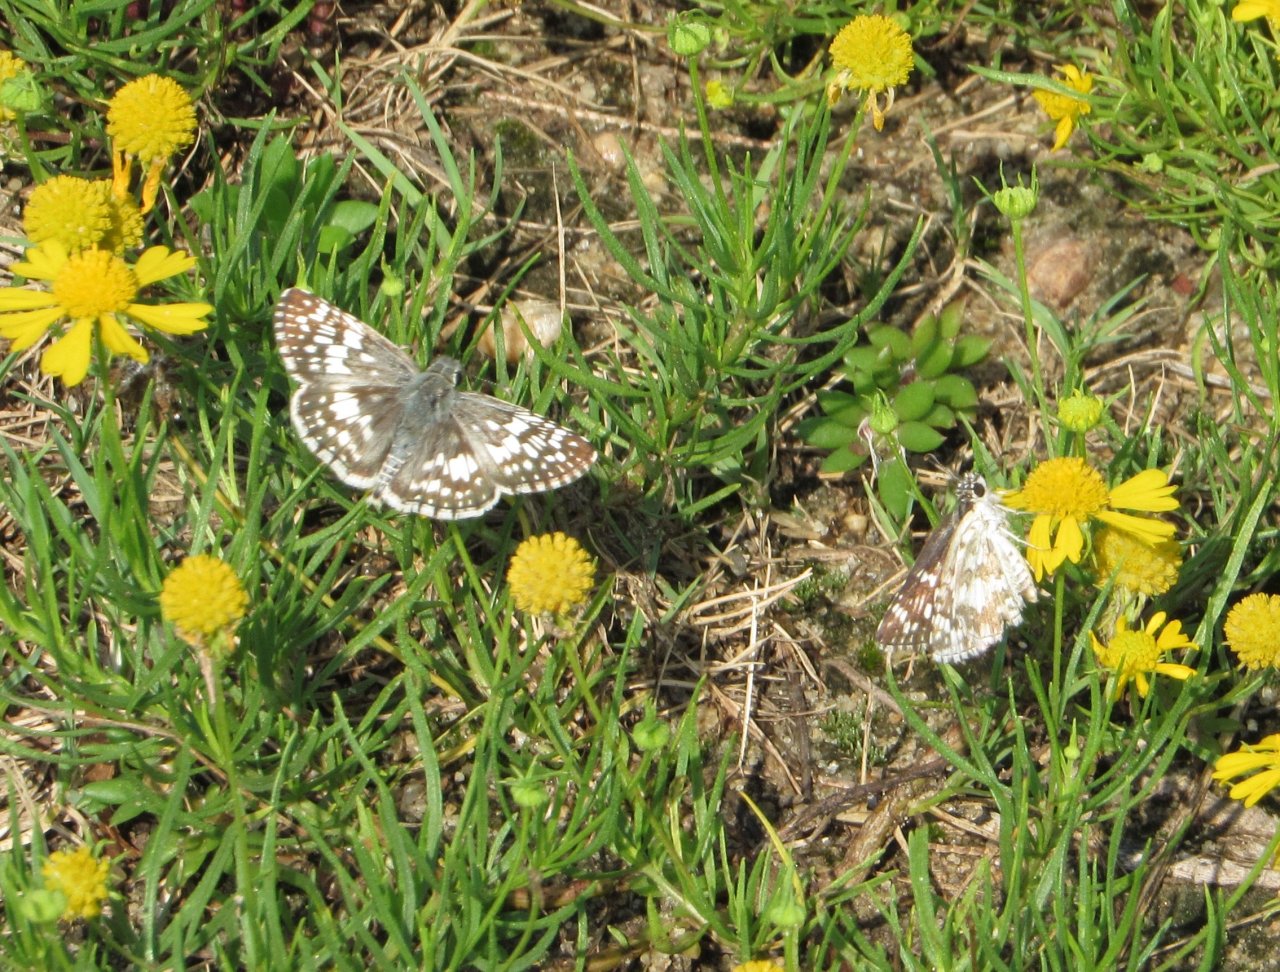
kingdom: Animalia
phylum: Arthropoda
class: Insecta
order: Lepidoptera
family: Hesperiidae
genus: Pyrgus
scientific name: Pyrgus communis
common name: Common Checkered-Skipper
